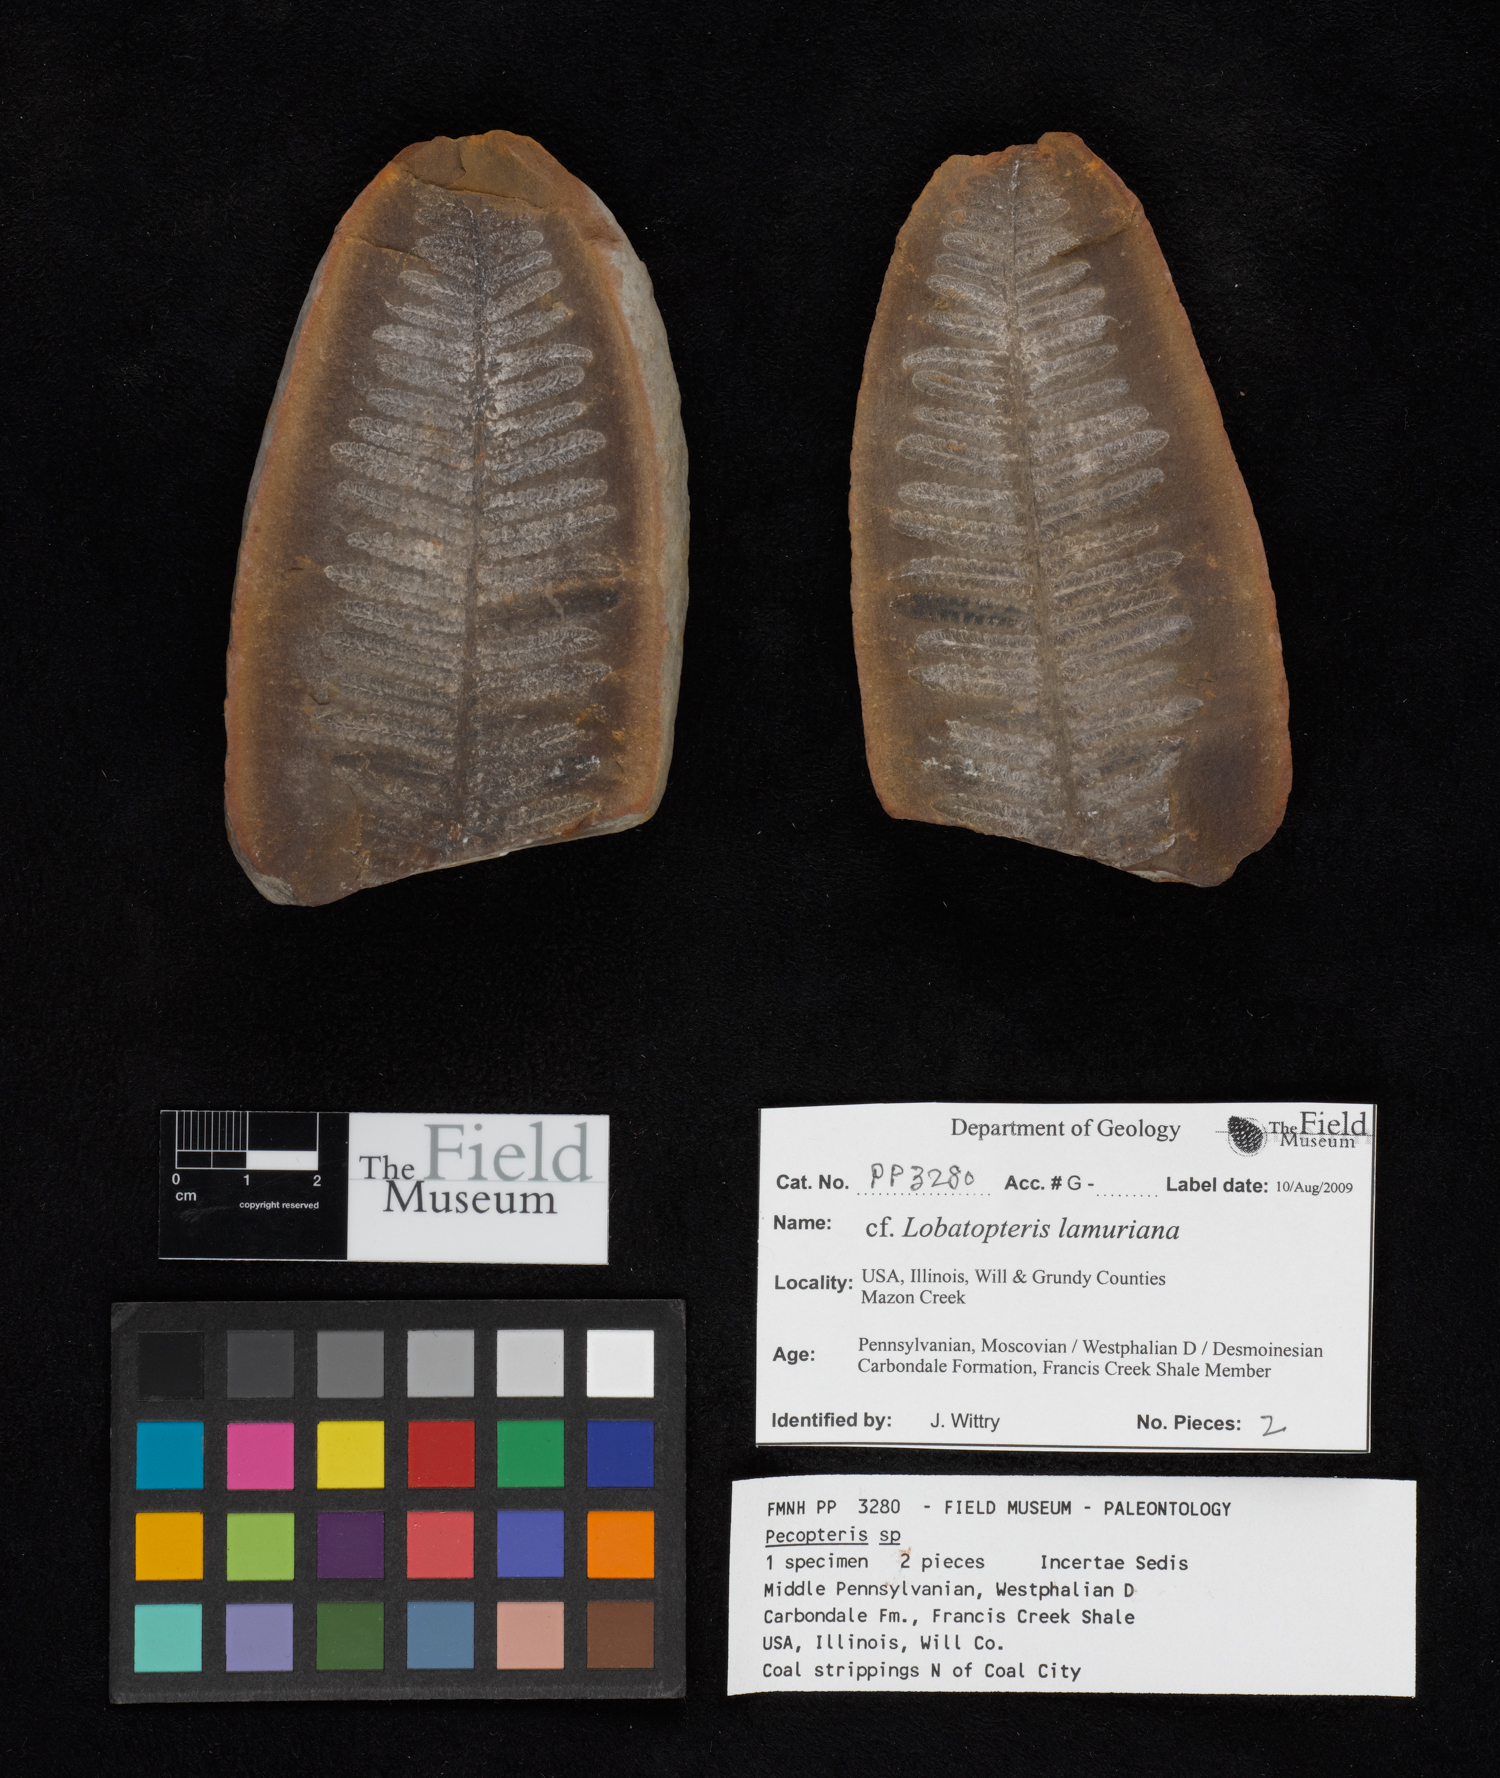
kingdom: Plantae
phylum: Tracheophyta
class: Polypodiopsida
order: Marattiales
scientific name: Marattiales
